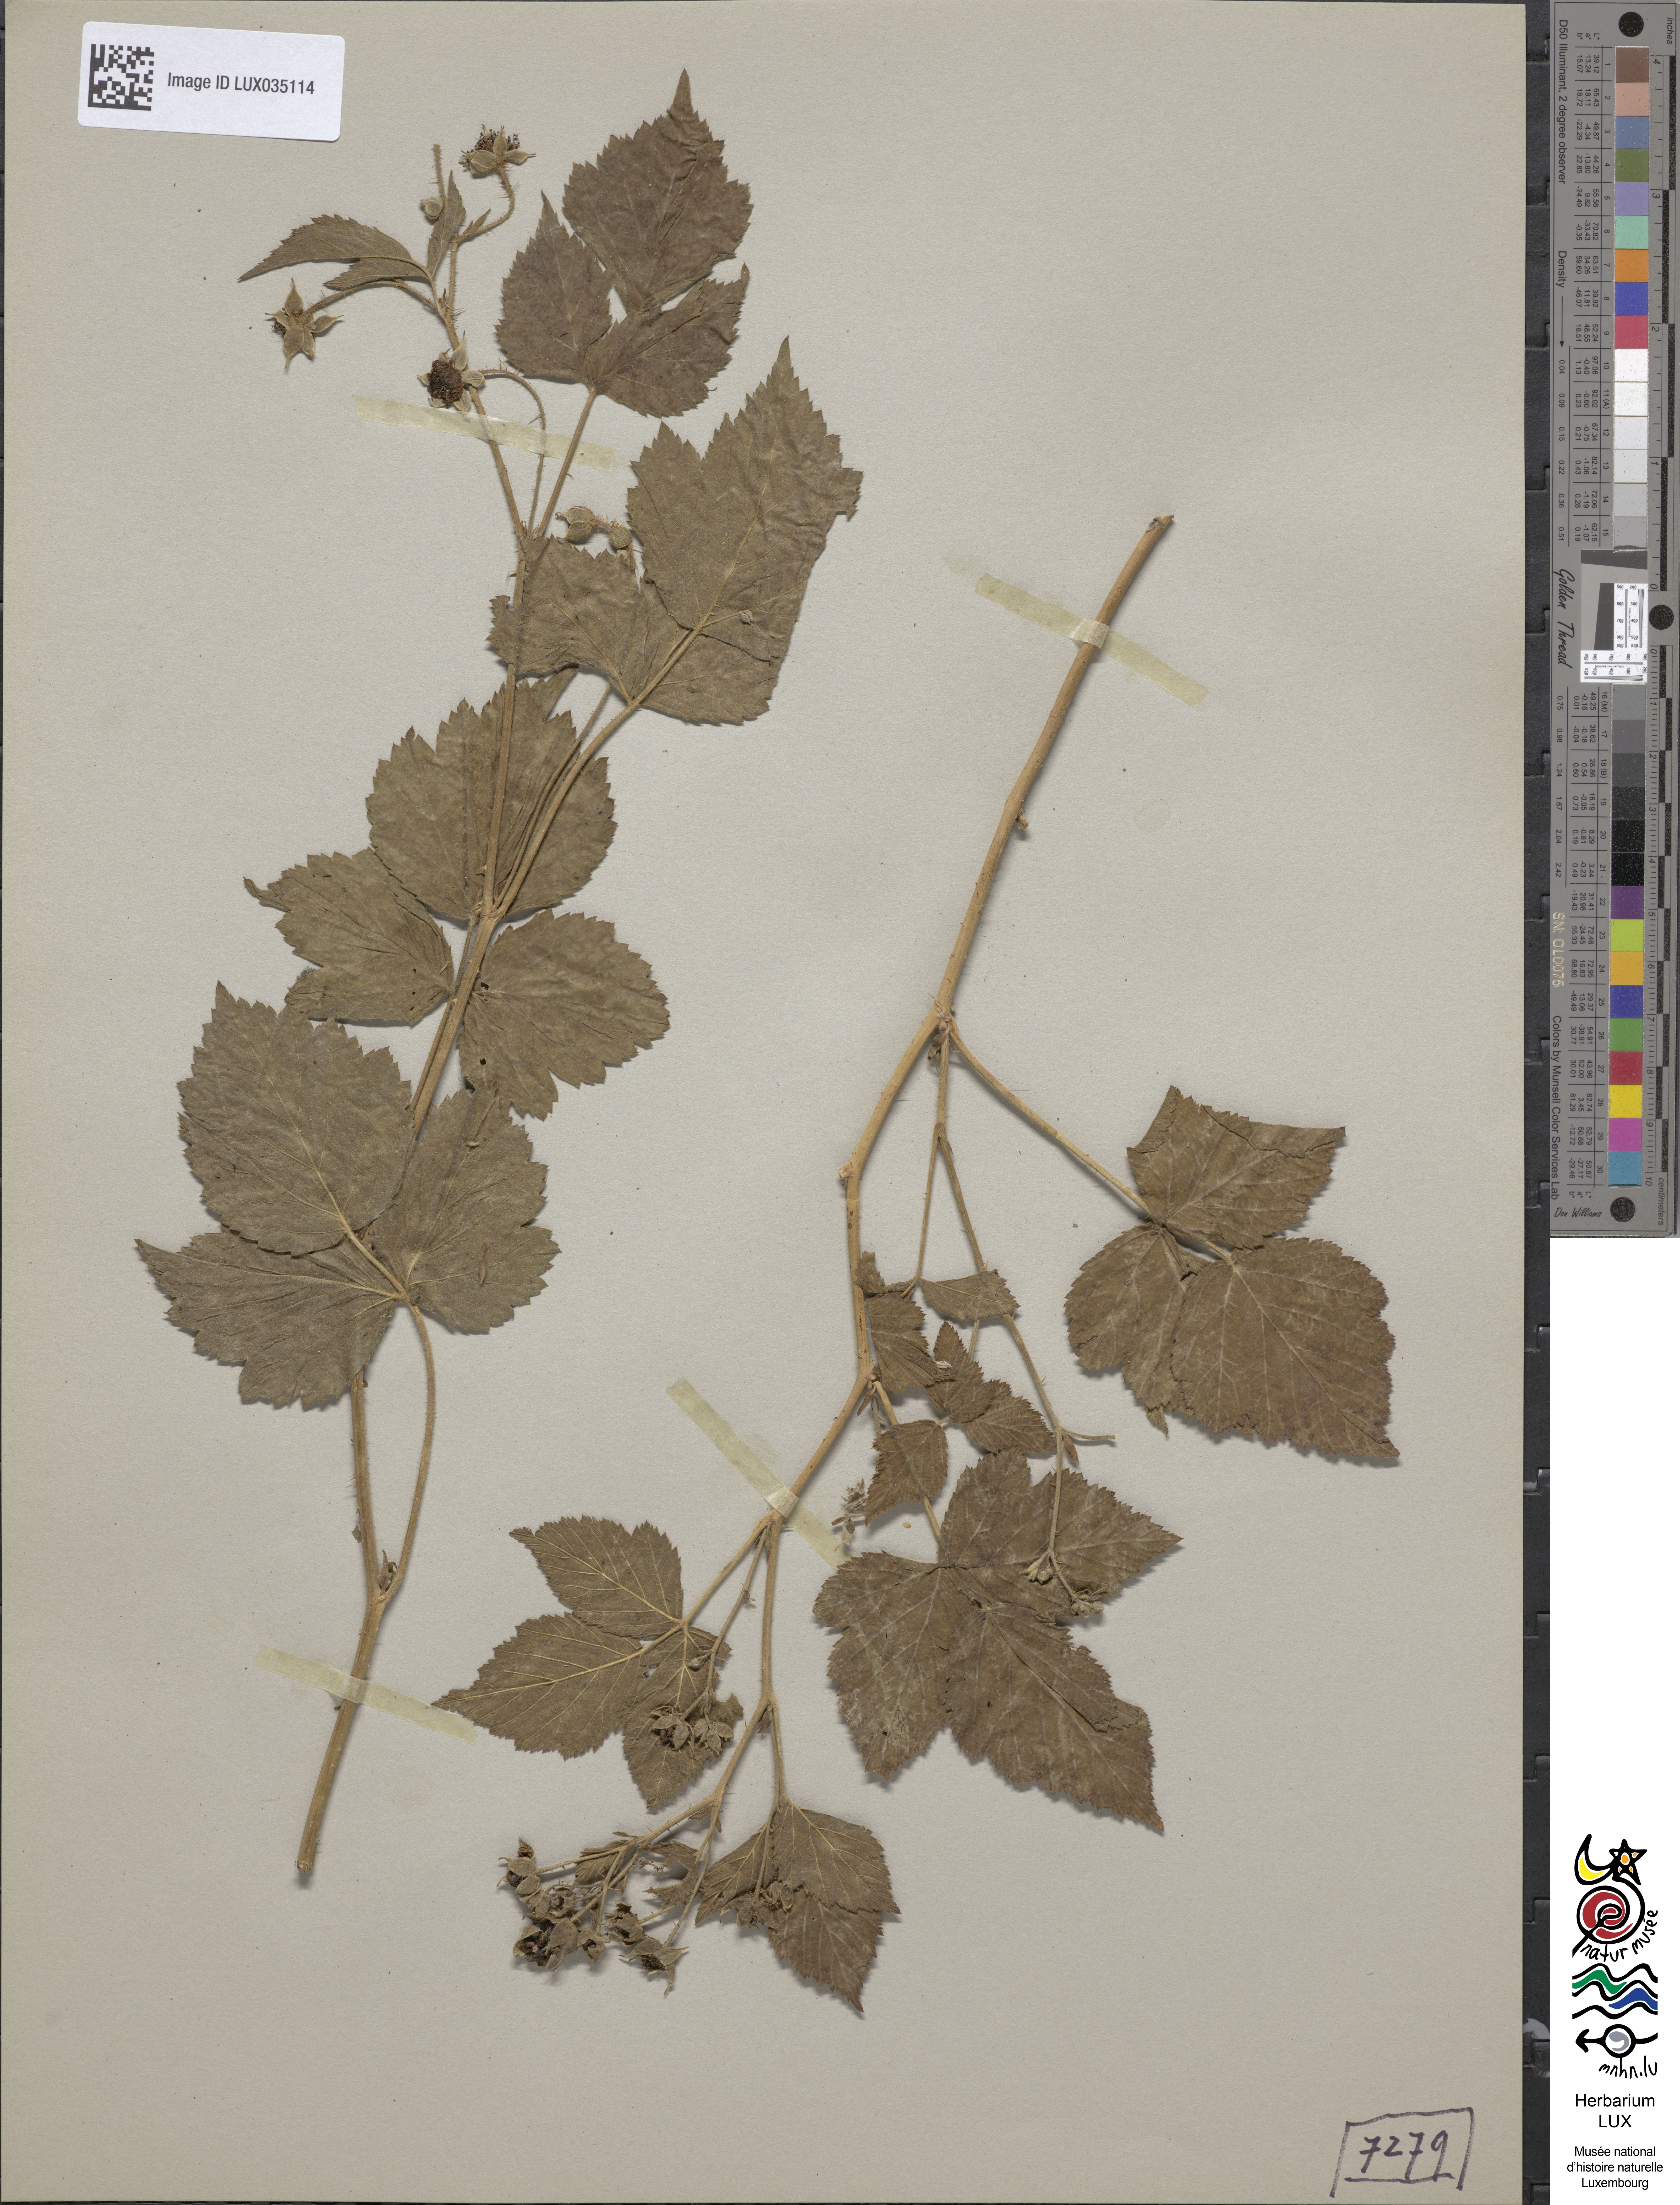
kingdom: Plantae
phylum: Tracheophyta
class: Magnoliopsida
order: Rosales
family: Rosaceae
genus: Rubus
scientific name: Rubus caesius
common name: Dewberry
